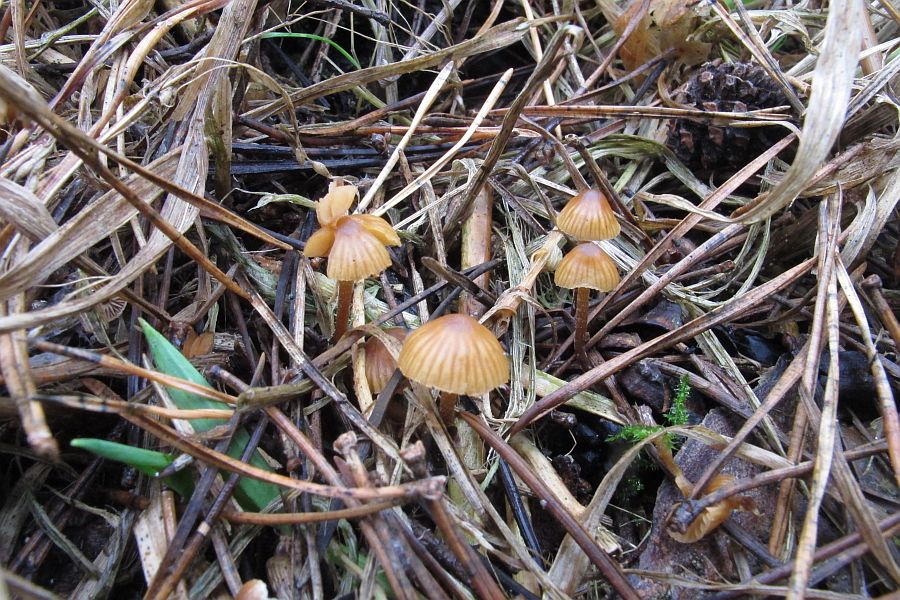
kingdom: Fungi
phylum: Basidiomycota
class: Agaricomycetes
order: Agaricales
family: Hymenogastraceae
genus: Galerina
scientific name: Galerina nana
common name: dværg-hjelmhat
